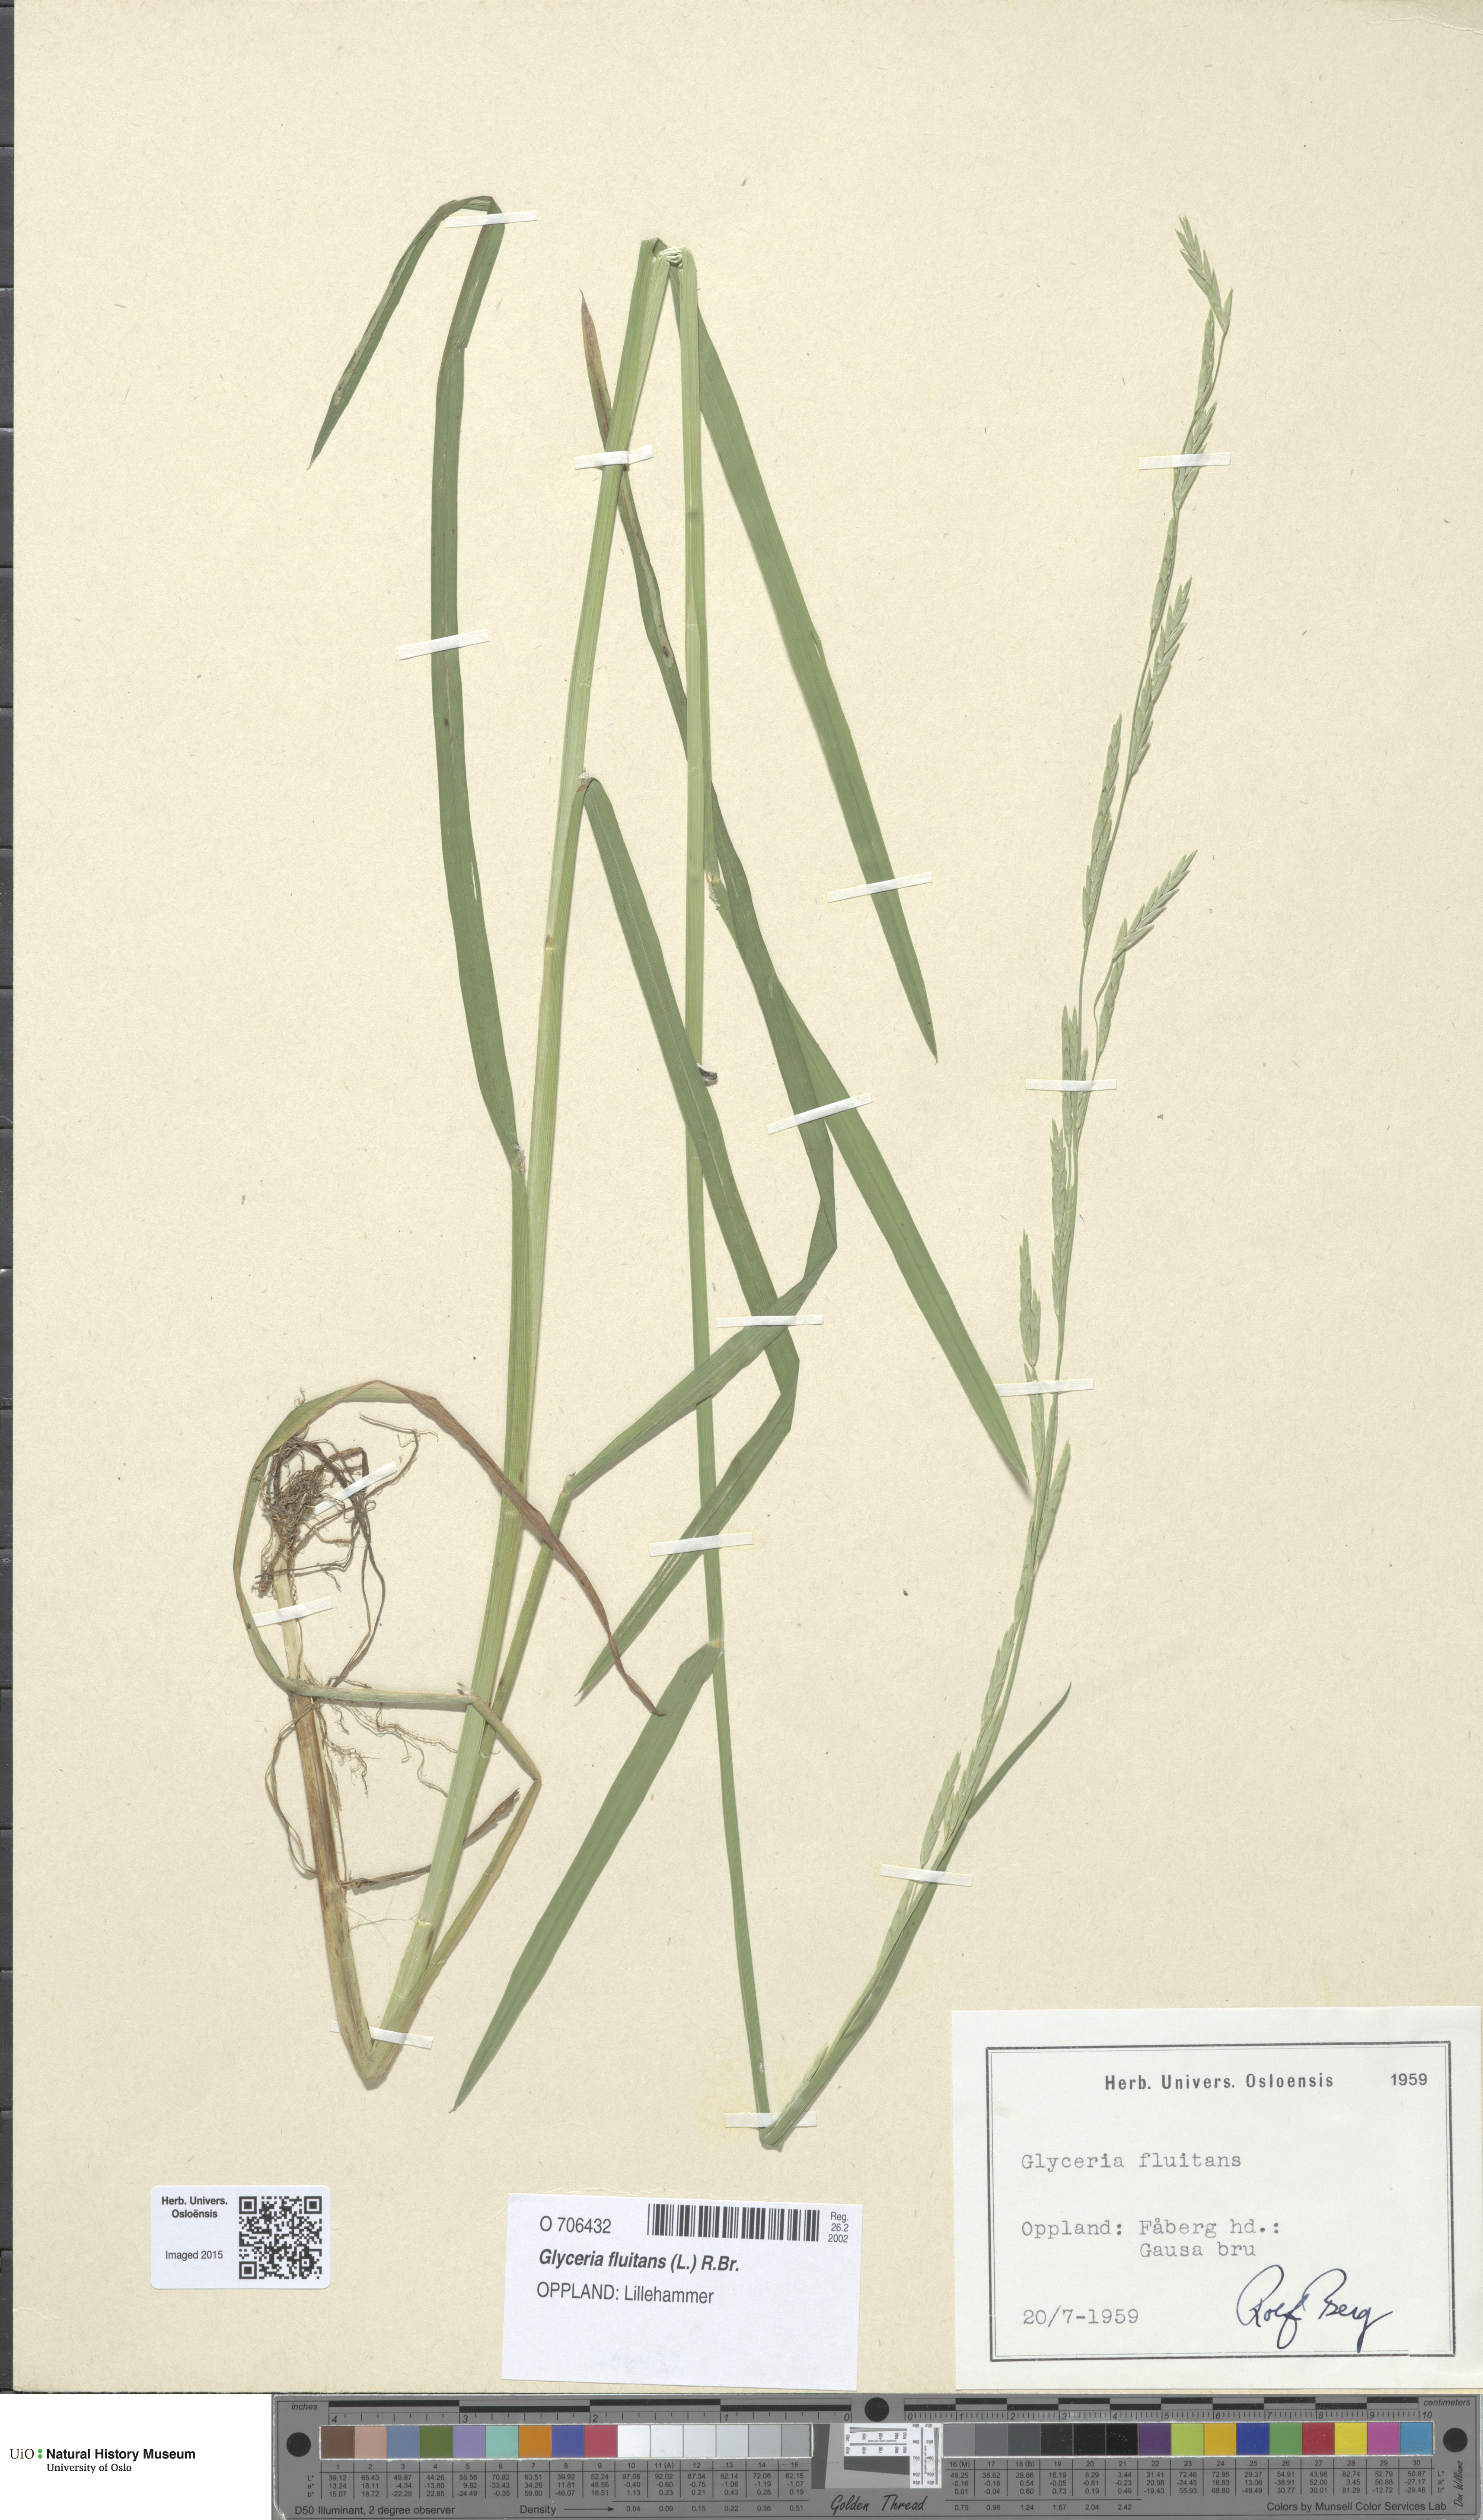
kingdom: Plantae
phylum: Tracheophyta
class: Liliopsida
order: Poales
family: Poaceae
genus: Glyceria
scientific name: Glyceria fluitans
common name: Floating sweet-grass
